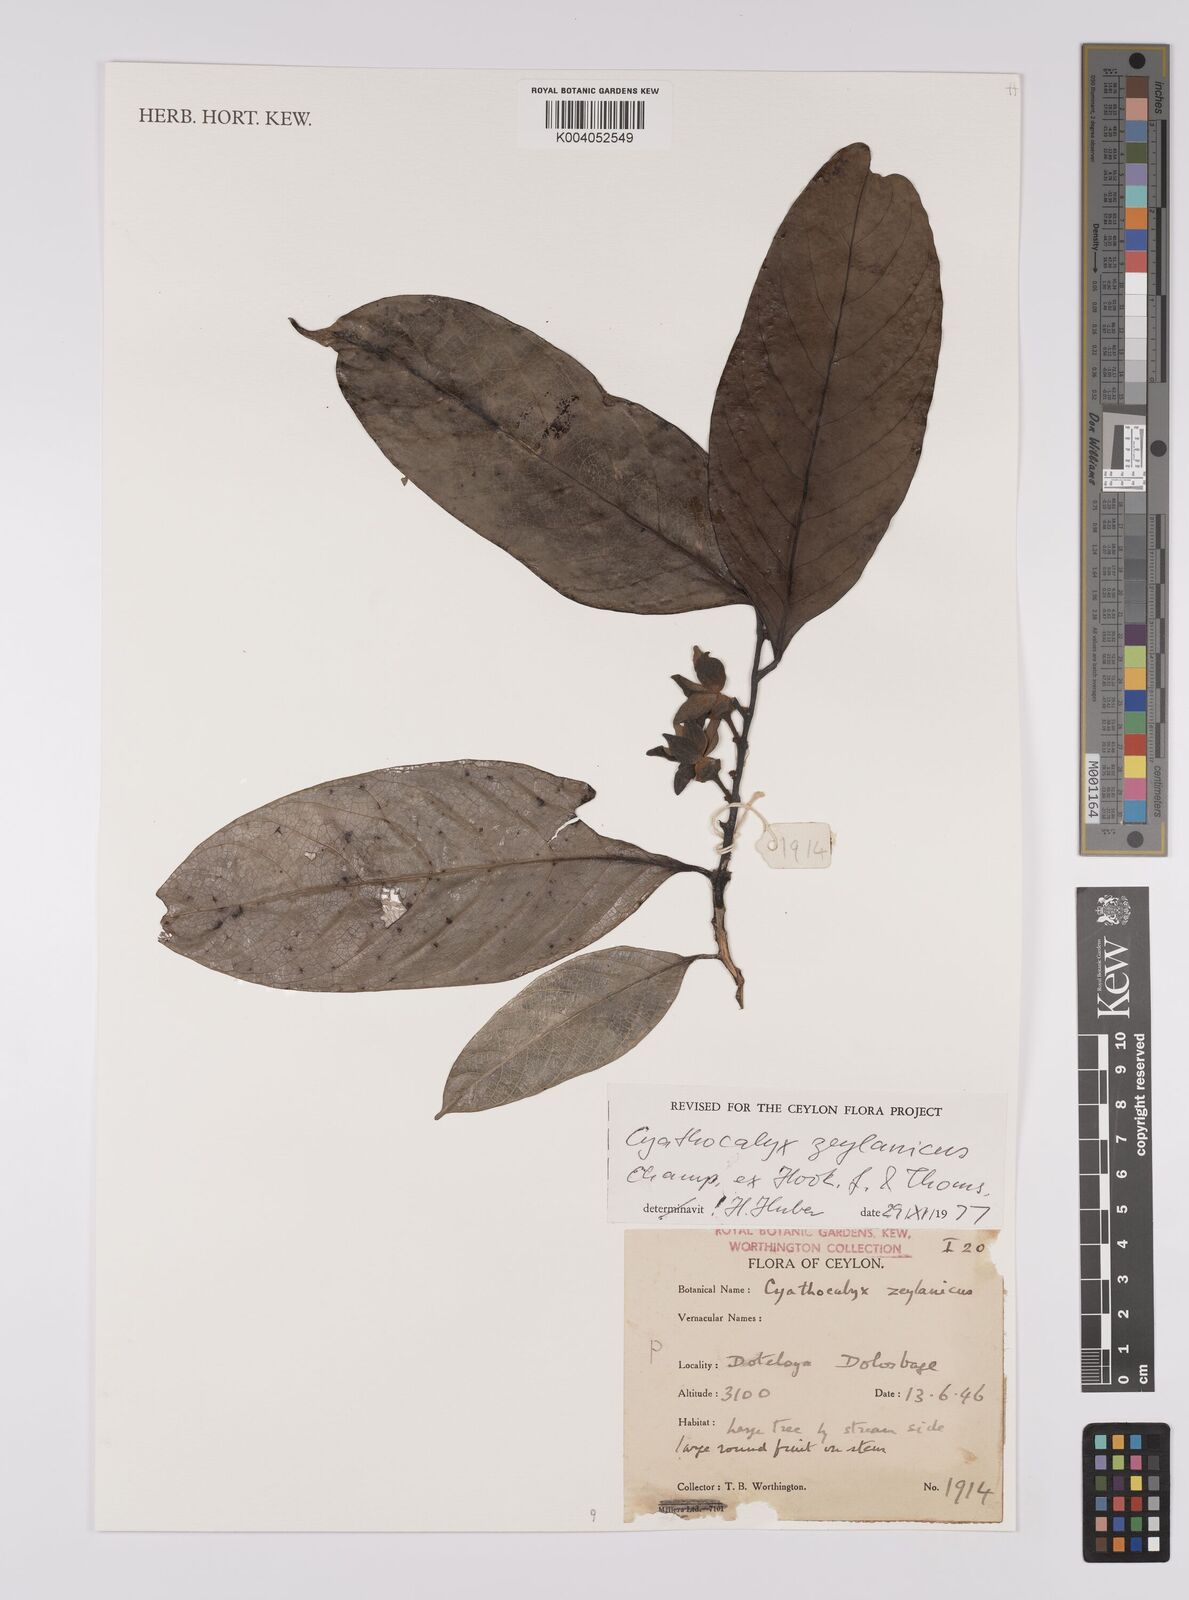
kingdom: Plantae
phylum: Tracheophyta
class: Magnoliopsida
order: Magnoliales
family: Annonaceae
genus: Cyathocalyx
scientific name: Cyathocalyx zeylanicus
